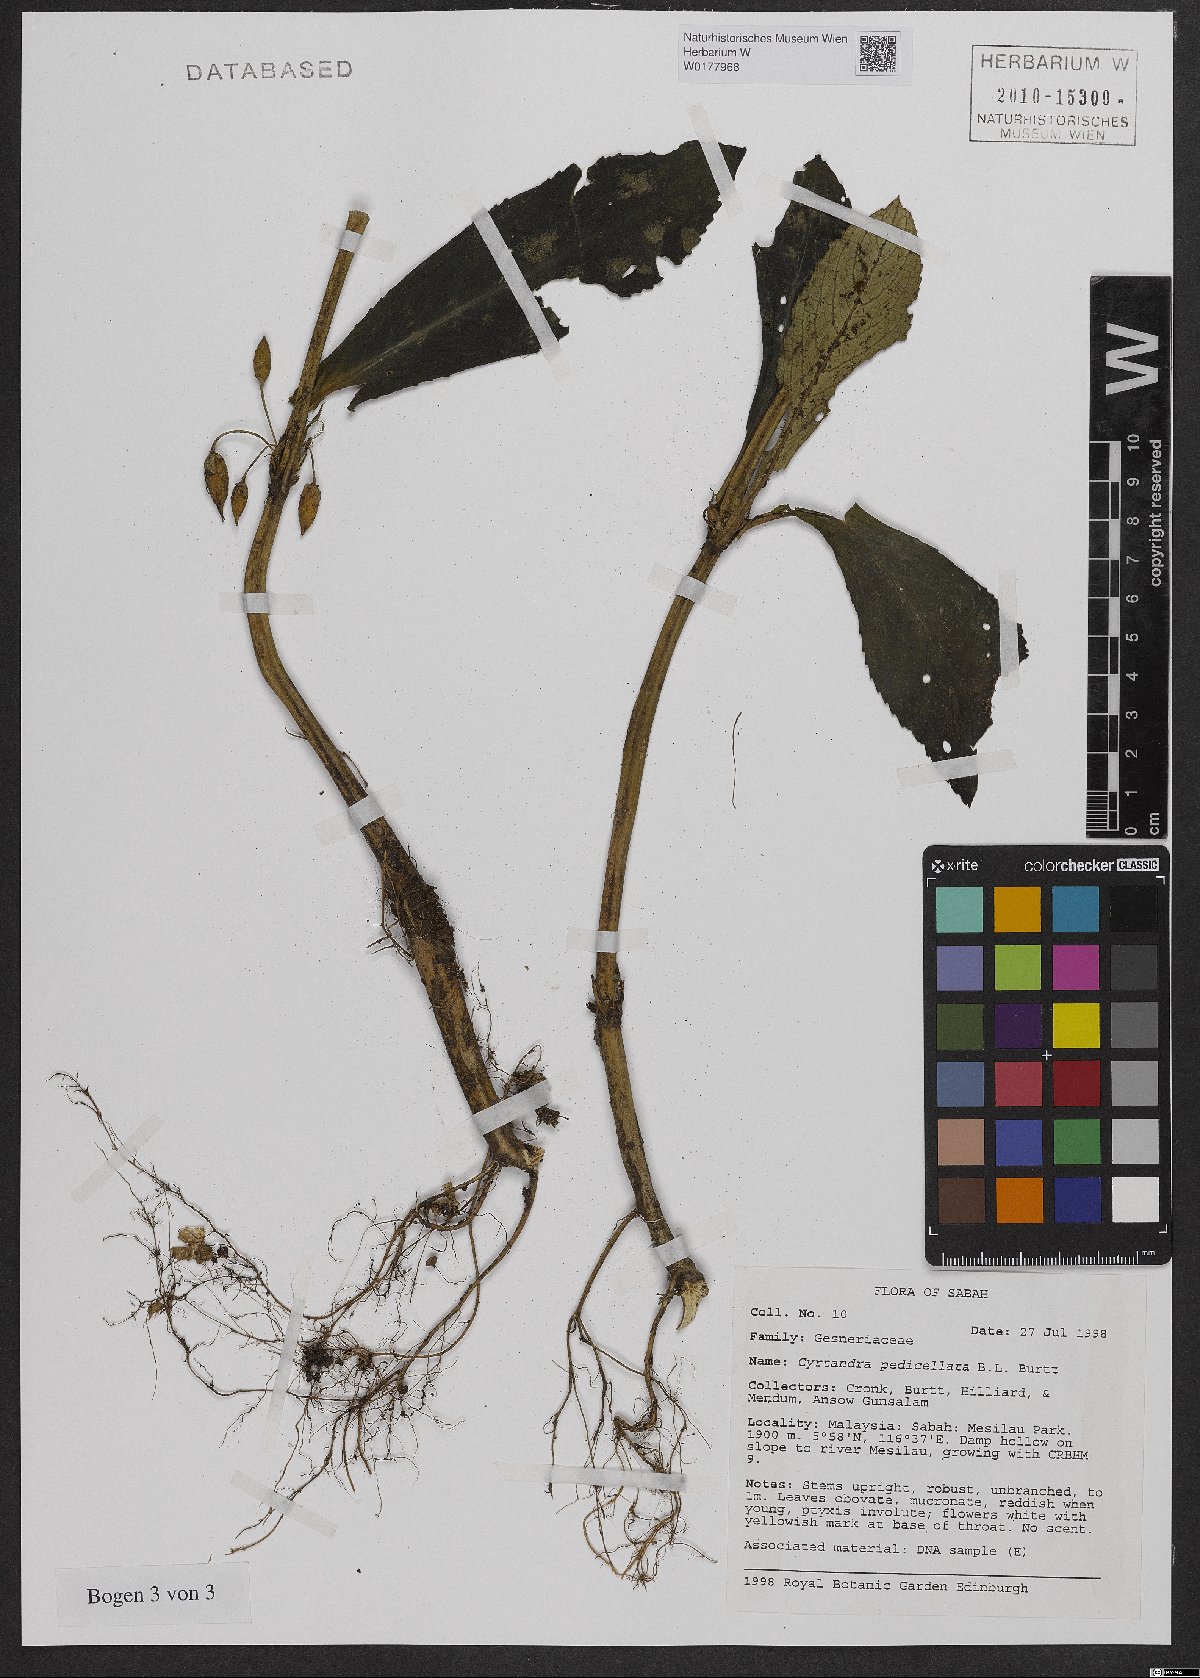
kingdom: Plantae
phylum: Tracheophyta
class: Magnoliopsida
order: Lamiales
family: Gesneriaceae
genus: Cyrtandra
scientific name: Cyrtandra pedicellata
